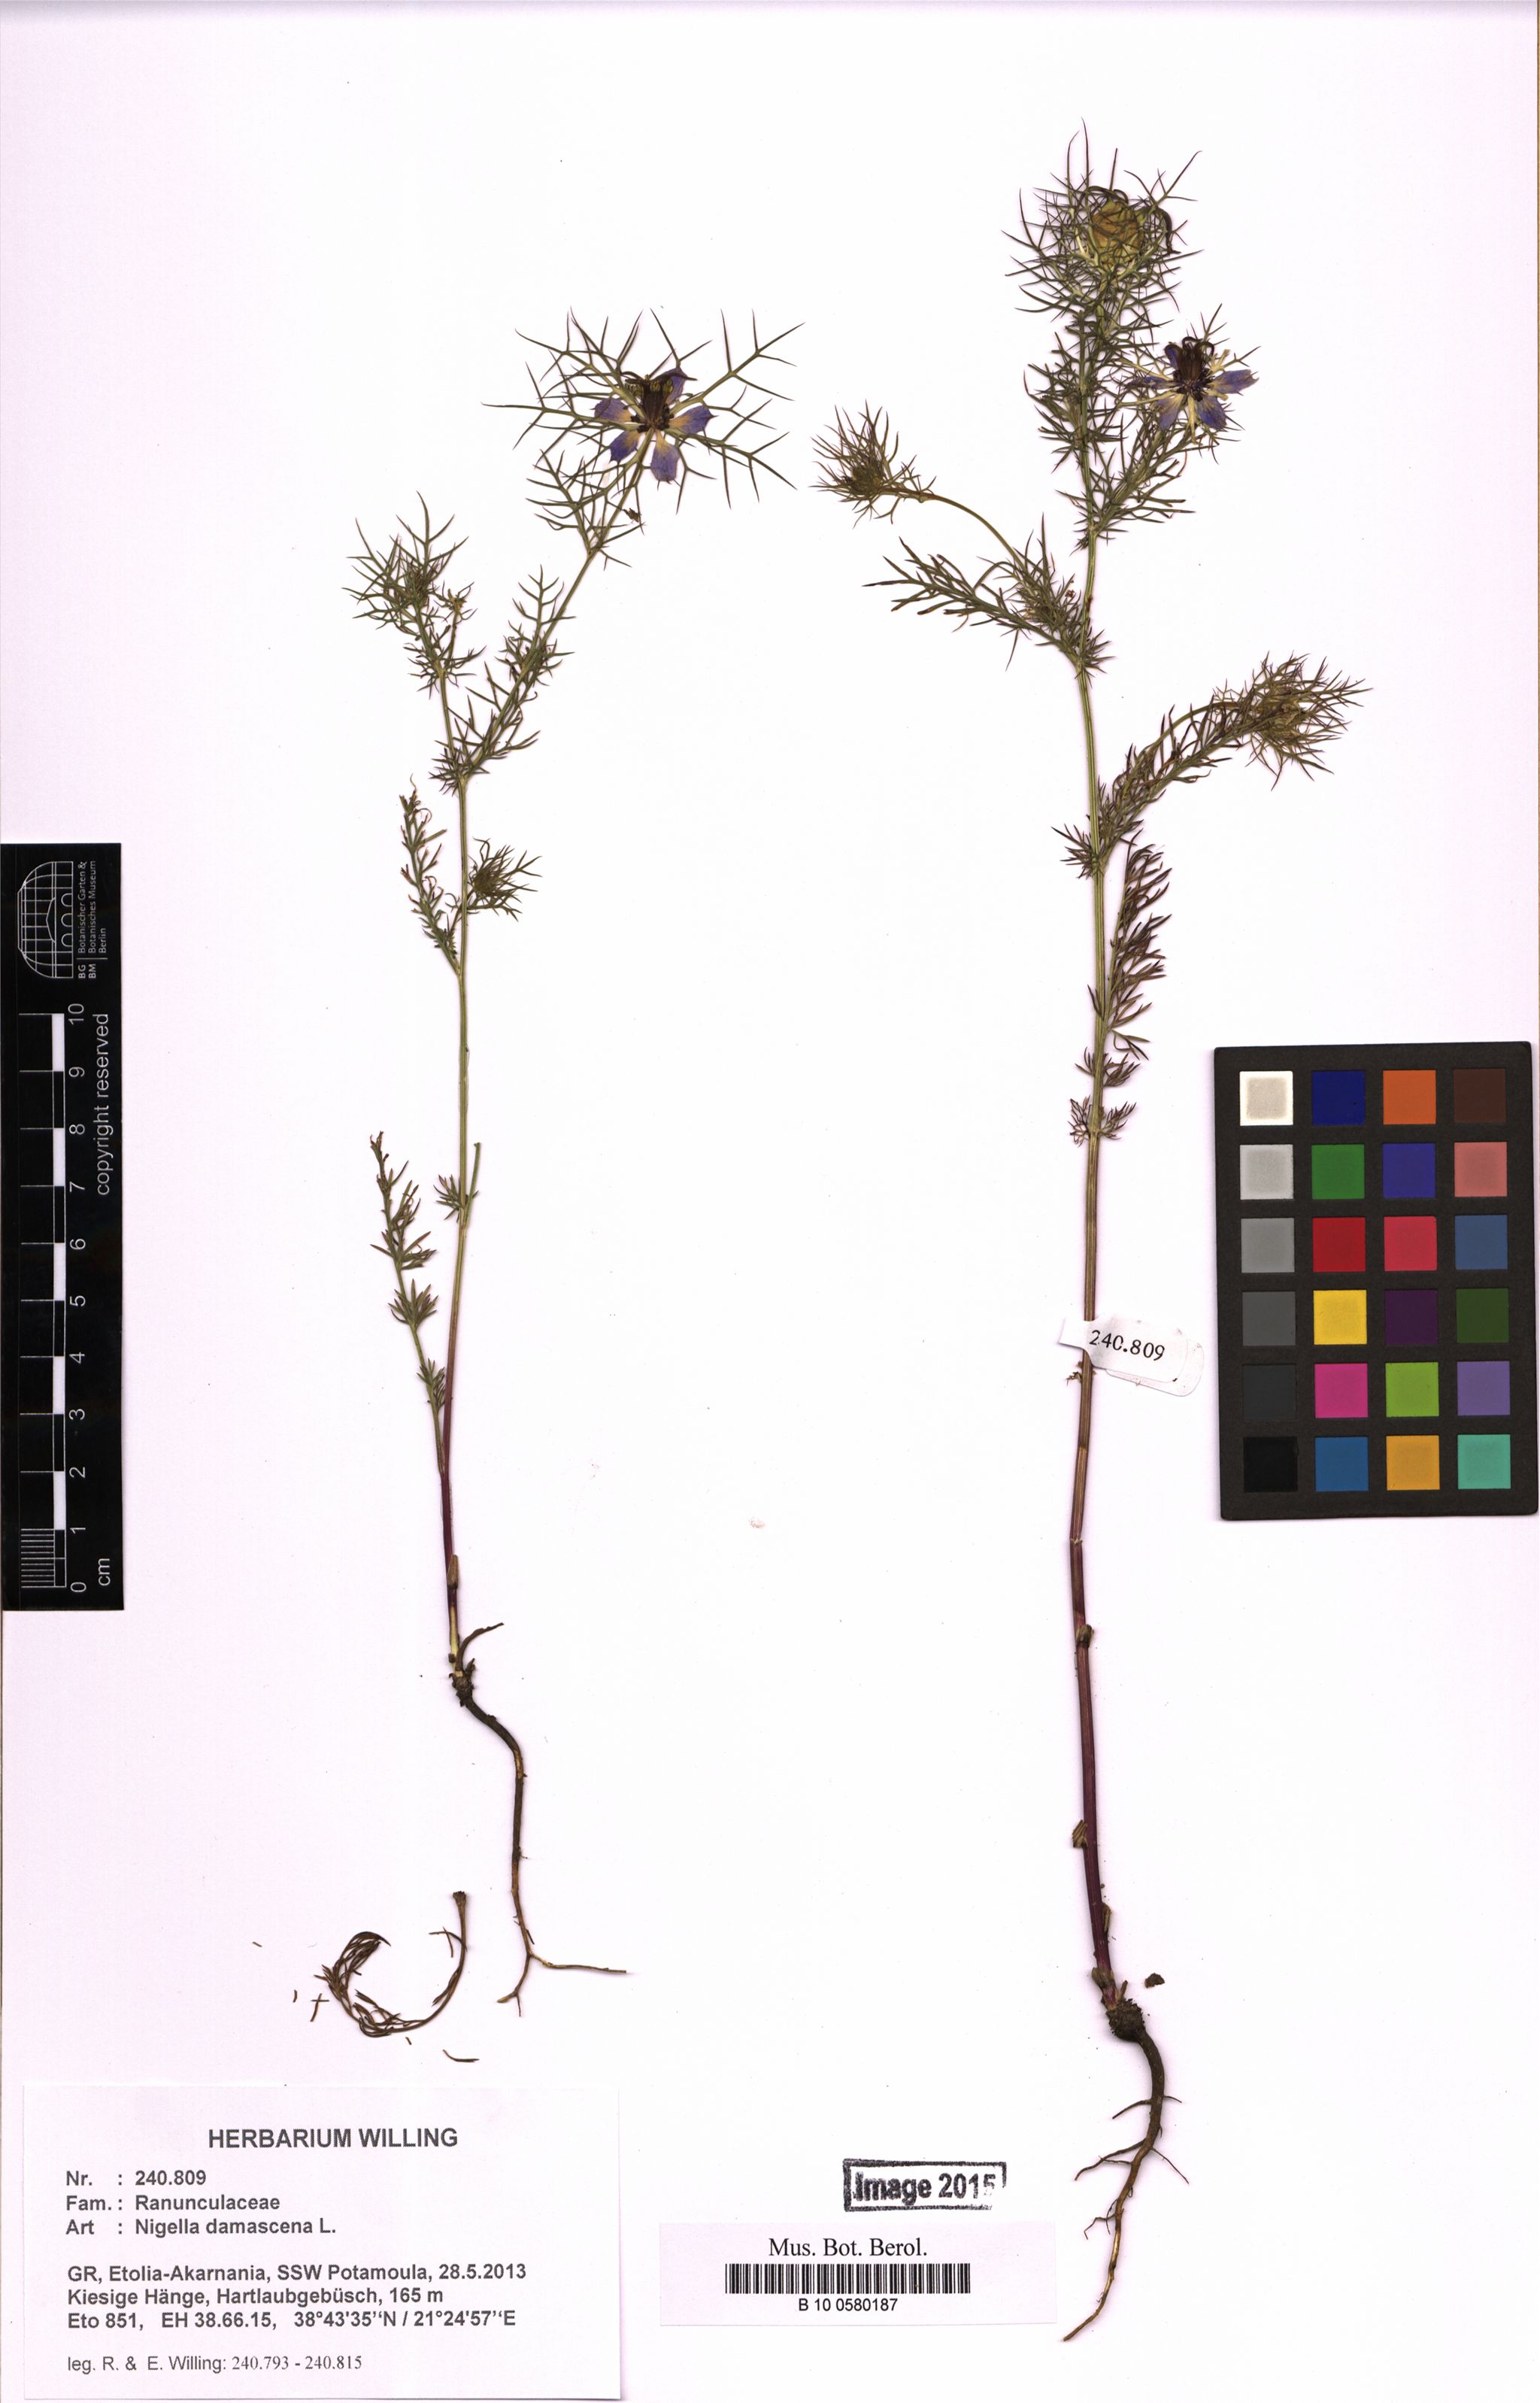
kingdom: Plantae
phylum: Tracheophyta
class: Magnoliopsida
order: Ranunculales
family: Ranunculaceae
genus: Nigella
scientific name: Nigella damascena
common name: Love-in-a-mist
